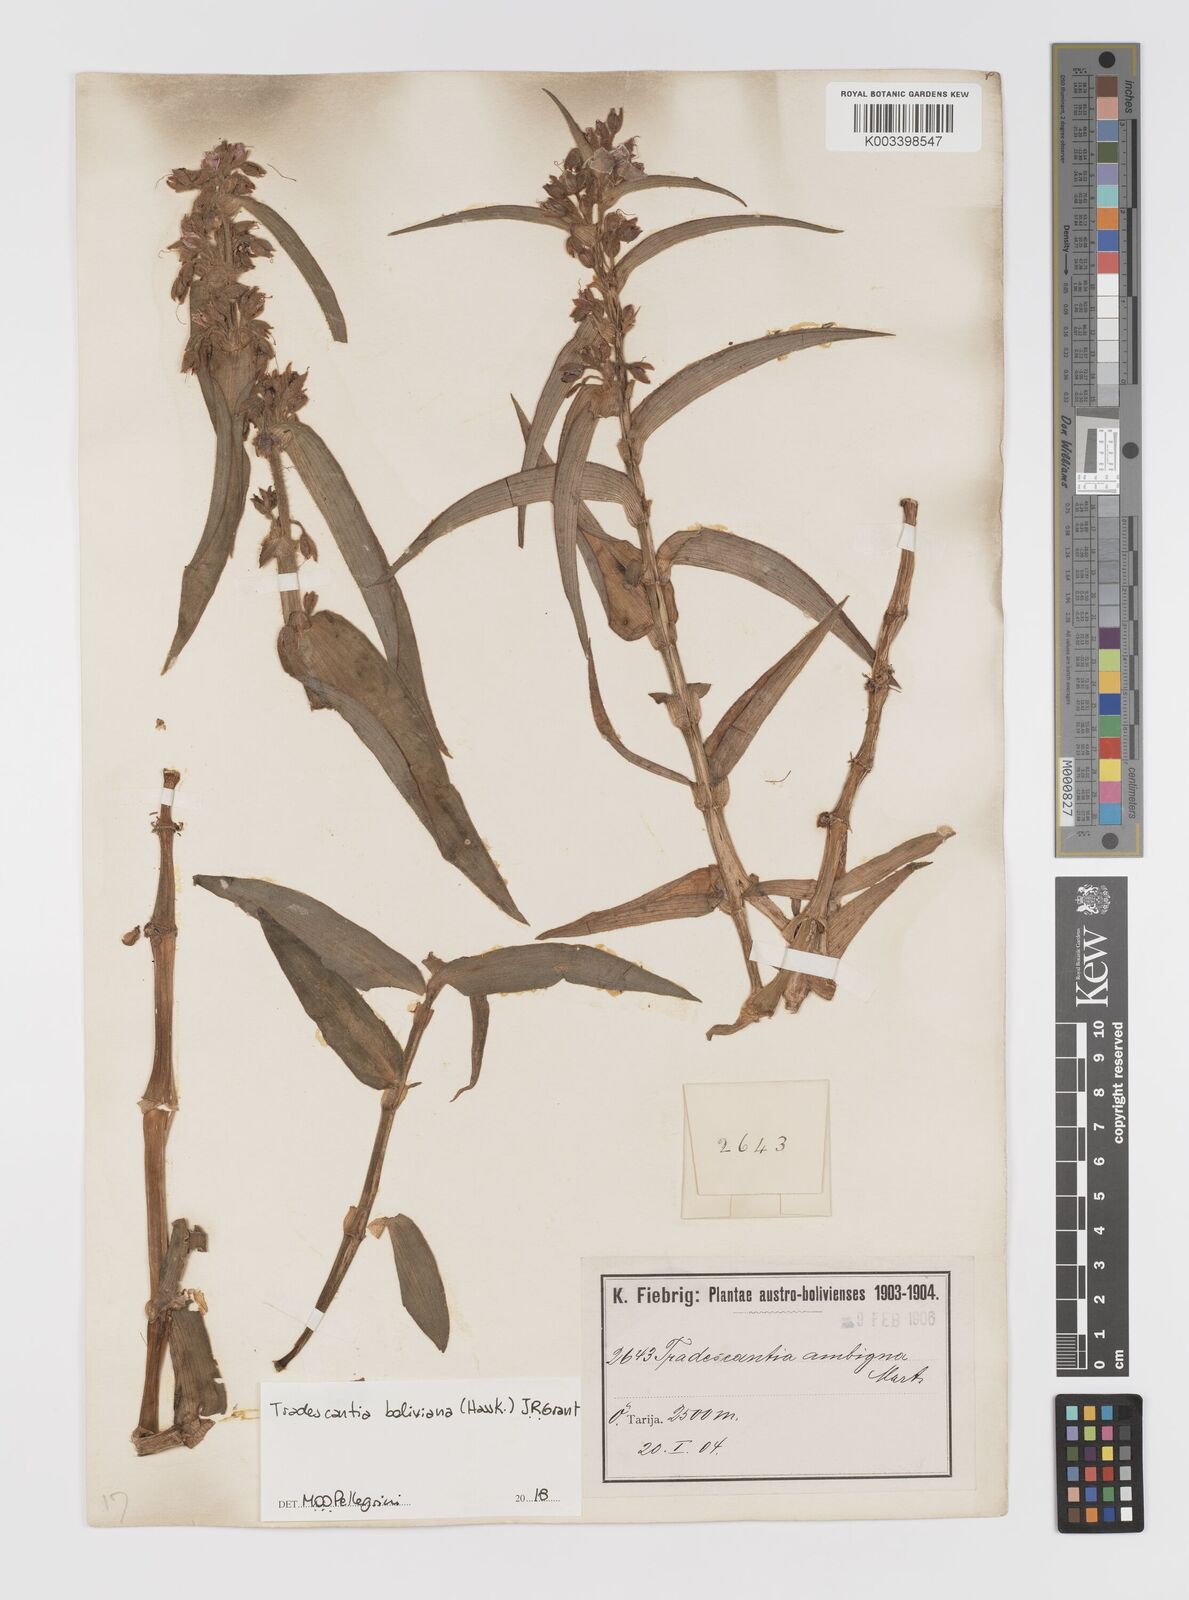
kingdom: Plantae
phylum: Tracheophyta
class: Liliopsida
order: Commelinales
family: Commelinaceae
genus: Tradescantia
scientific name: Tradescantia boliviana
